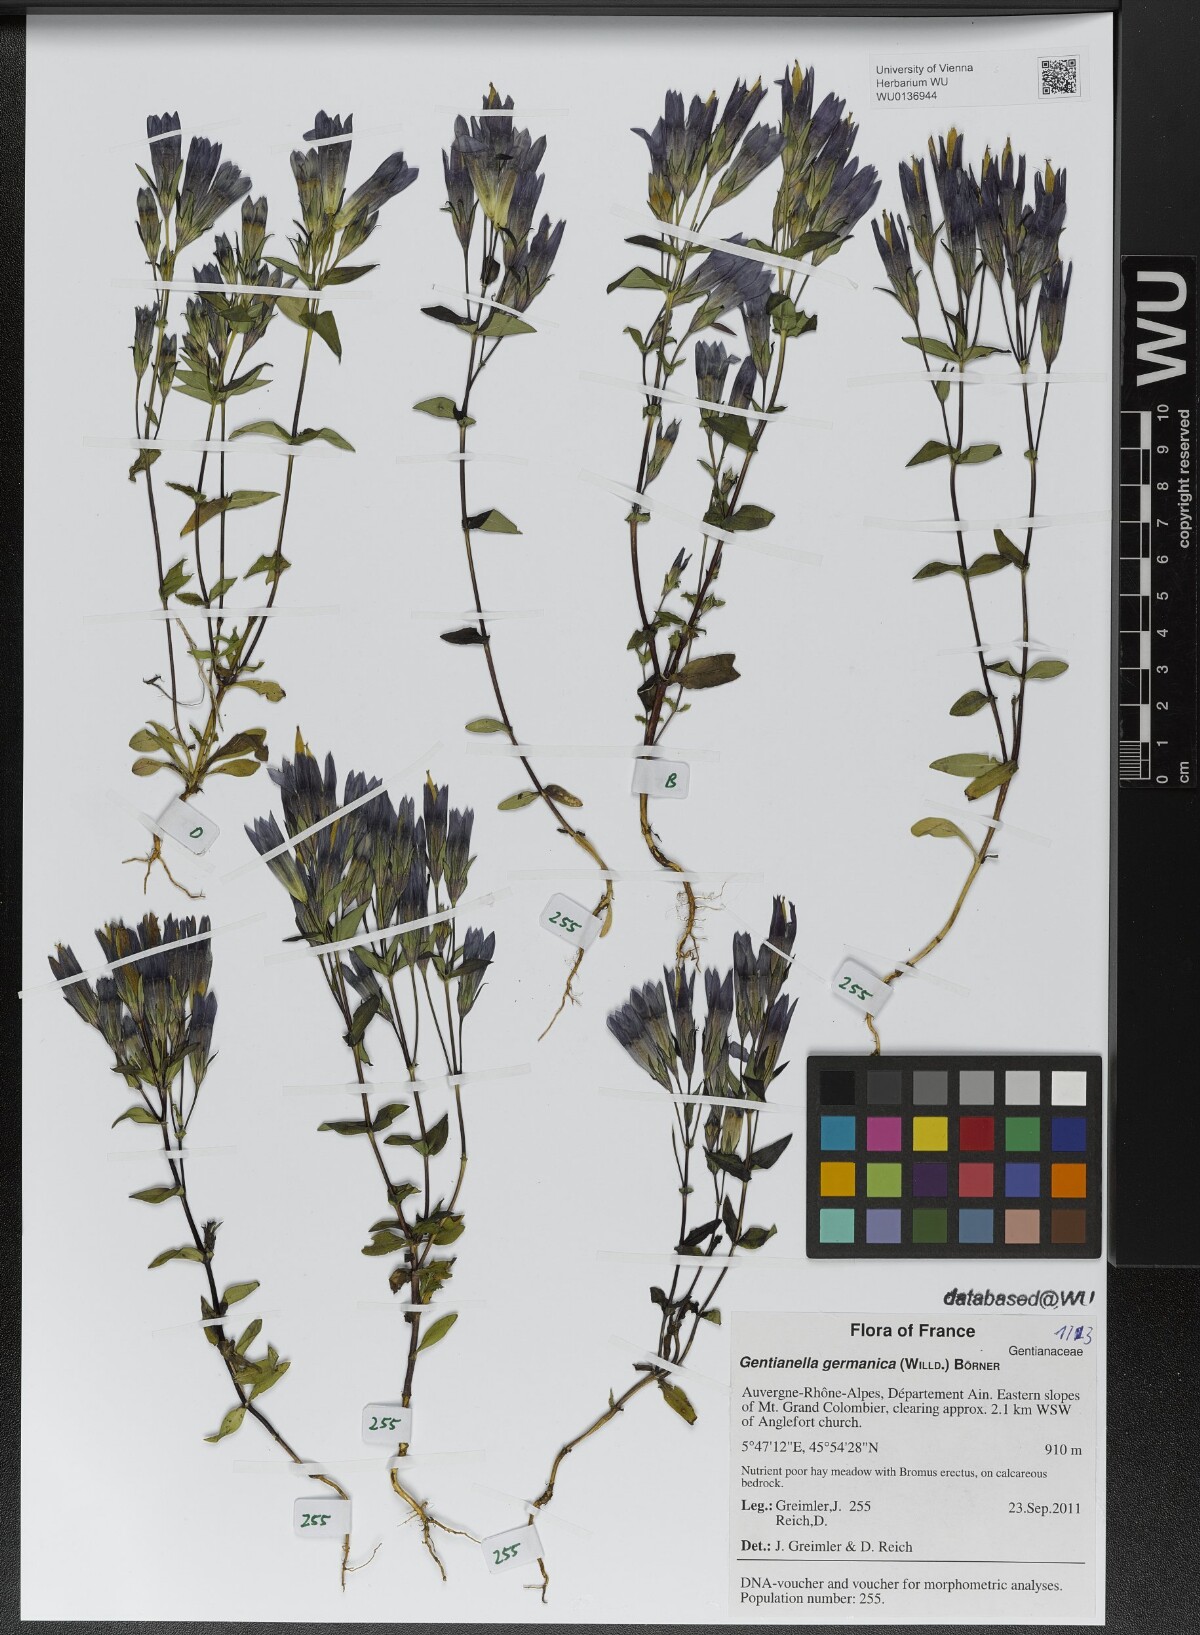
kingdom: Plantae
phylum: Tracheophyta
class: Magnoliopsida
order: Gentianales
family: Gentianaceae
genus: Gentianella
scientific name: Gentianella germanica
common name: Chiltern-gentian
